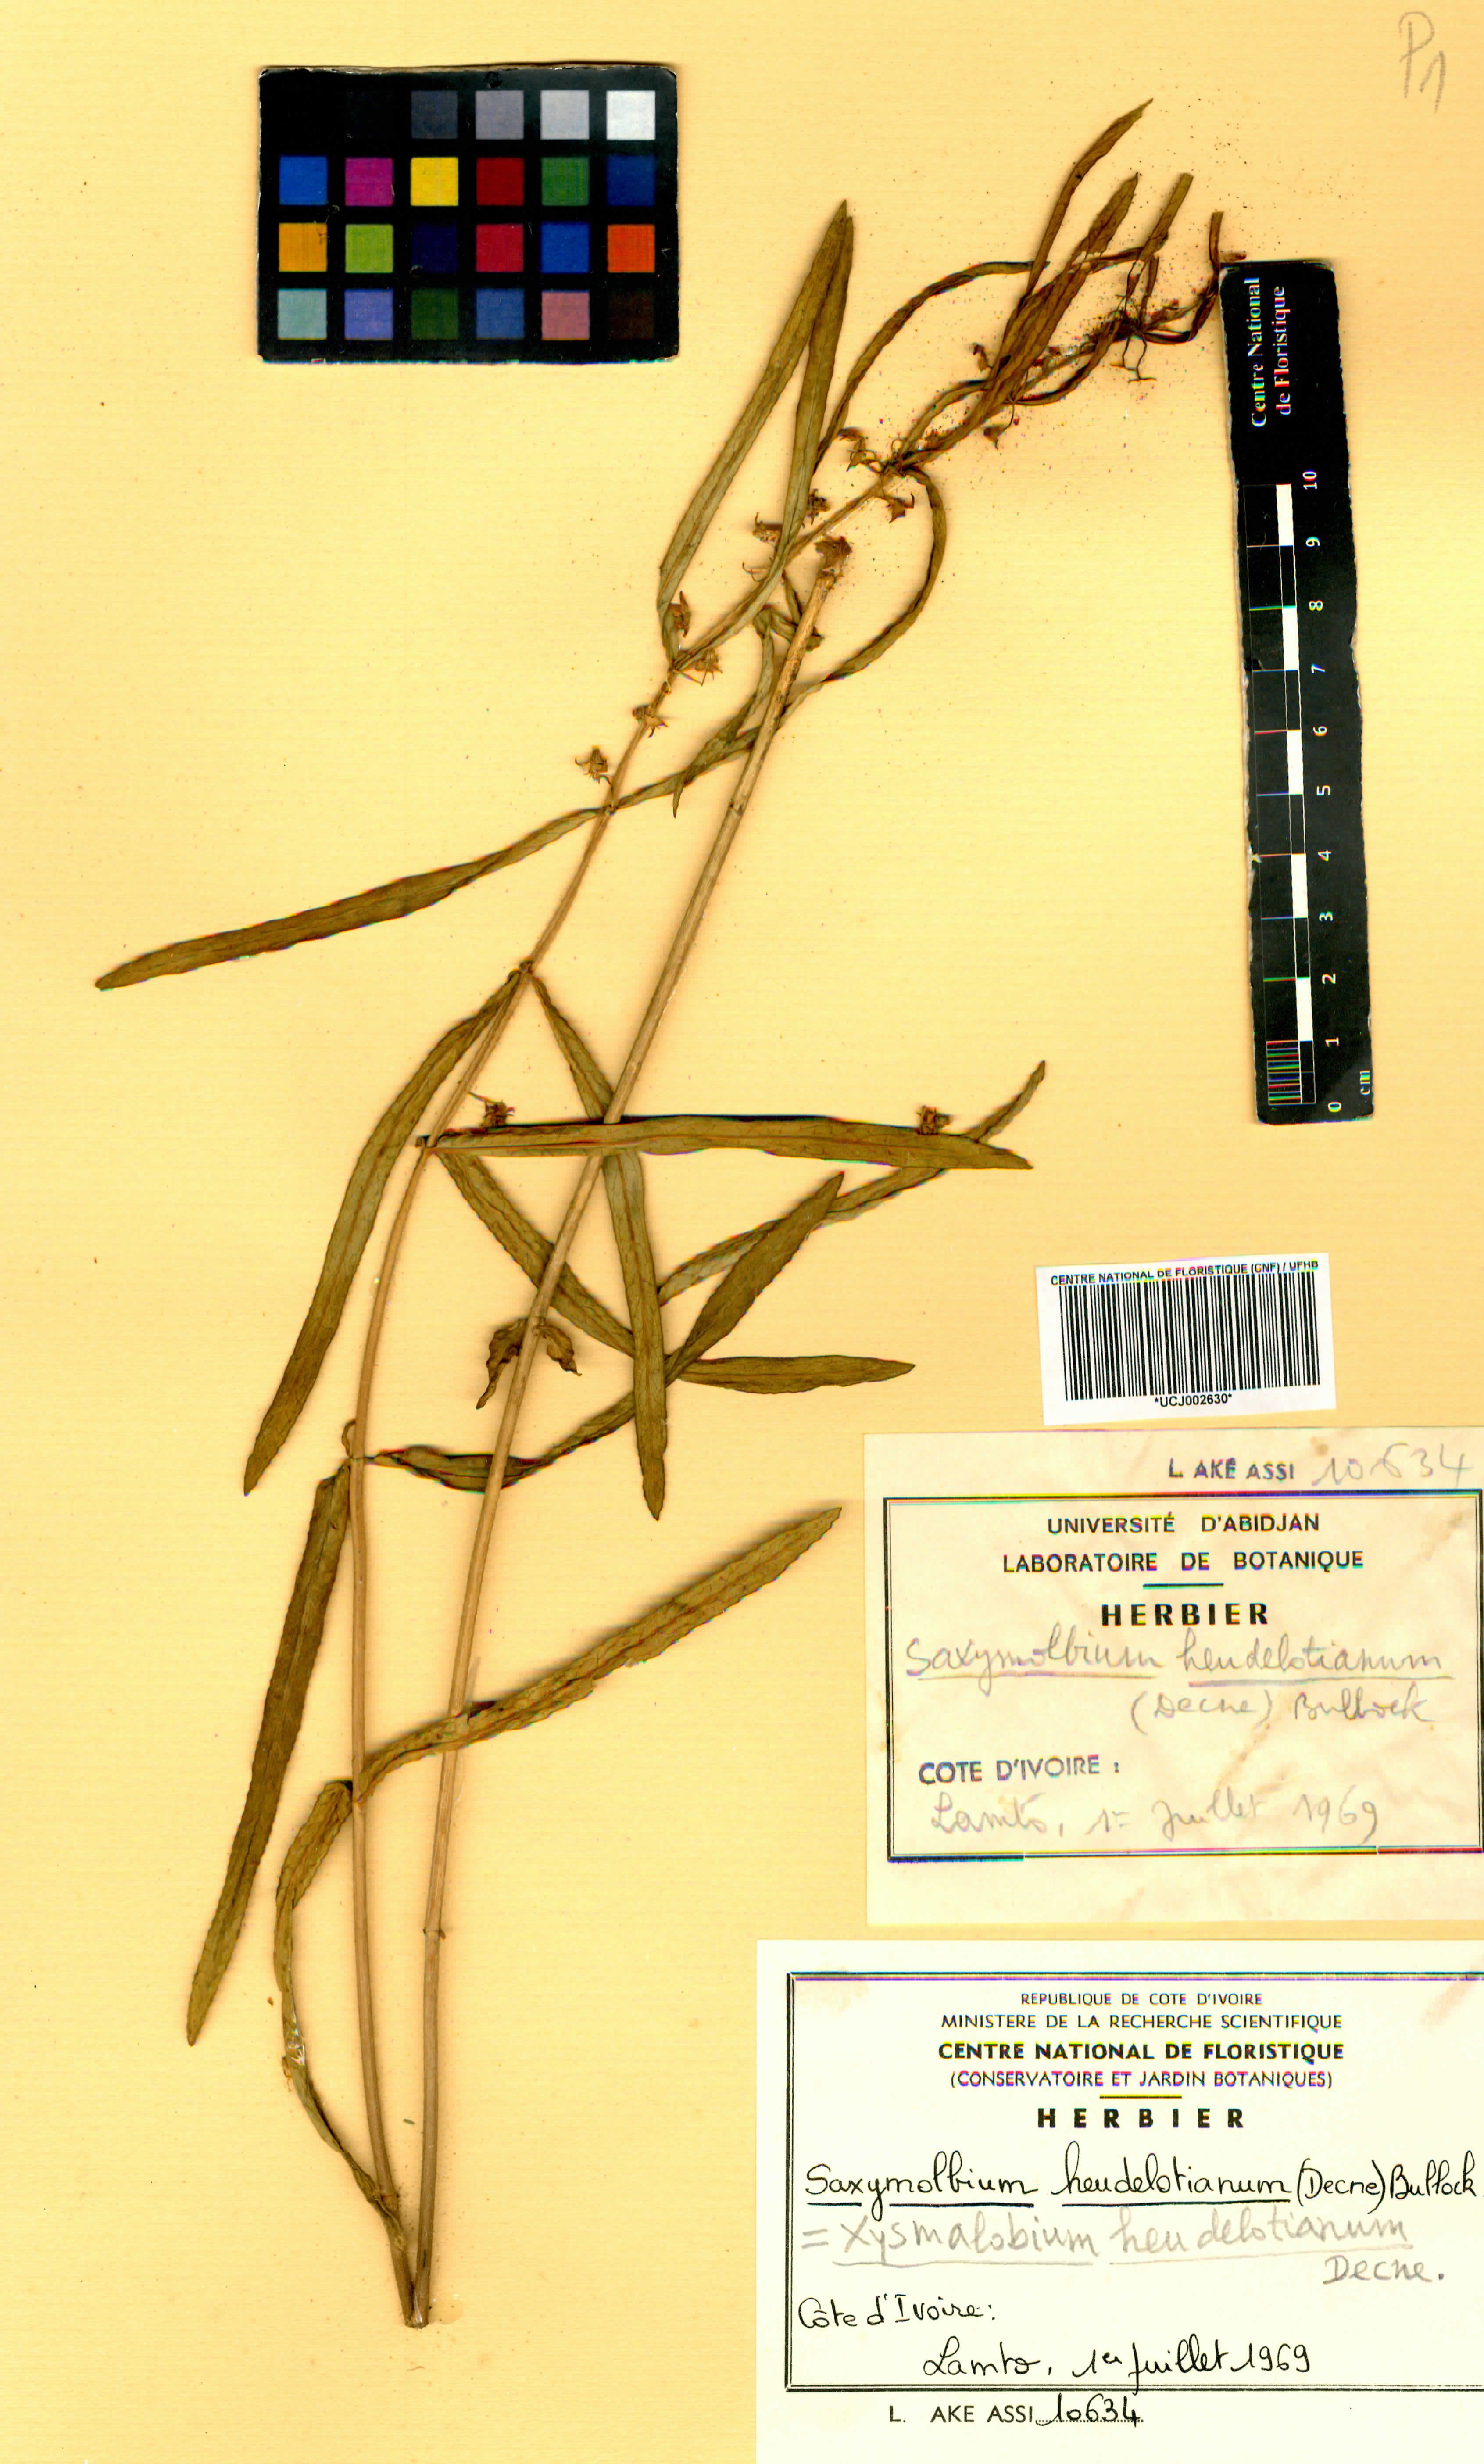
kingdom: Plantae
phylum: Tracheophyta
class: Magnoliopsida
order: Gentianales
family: Apocynaceae
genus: Xysmalobium
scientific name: Xysmalobium heudelotianum
